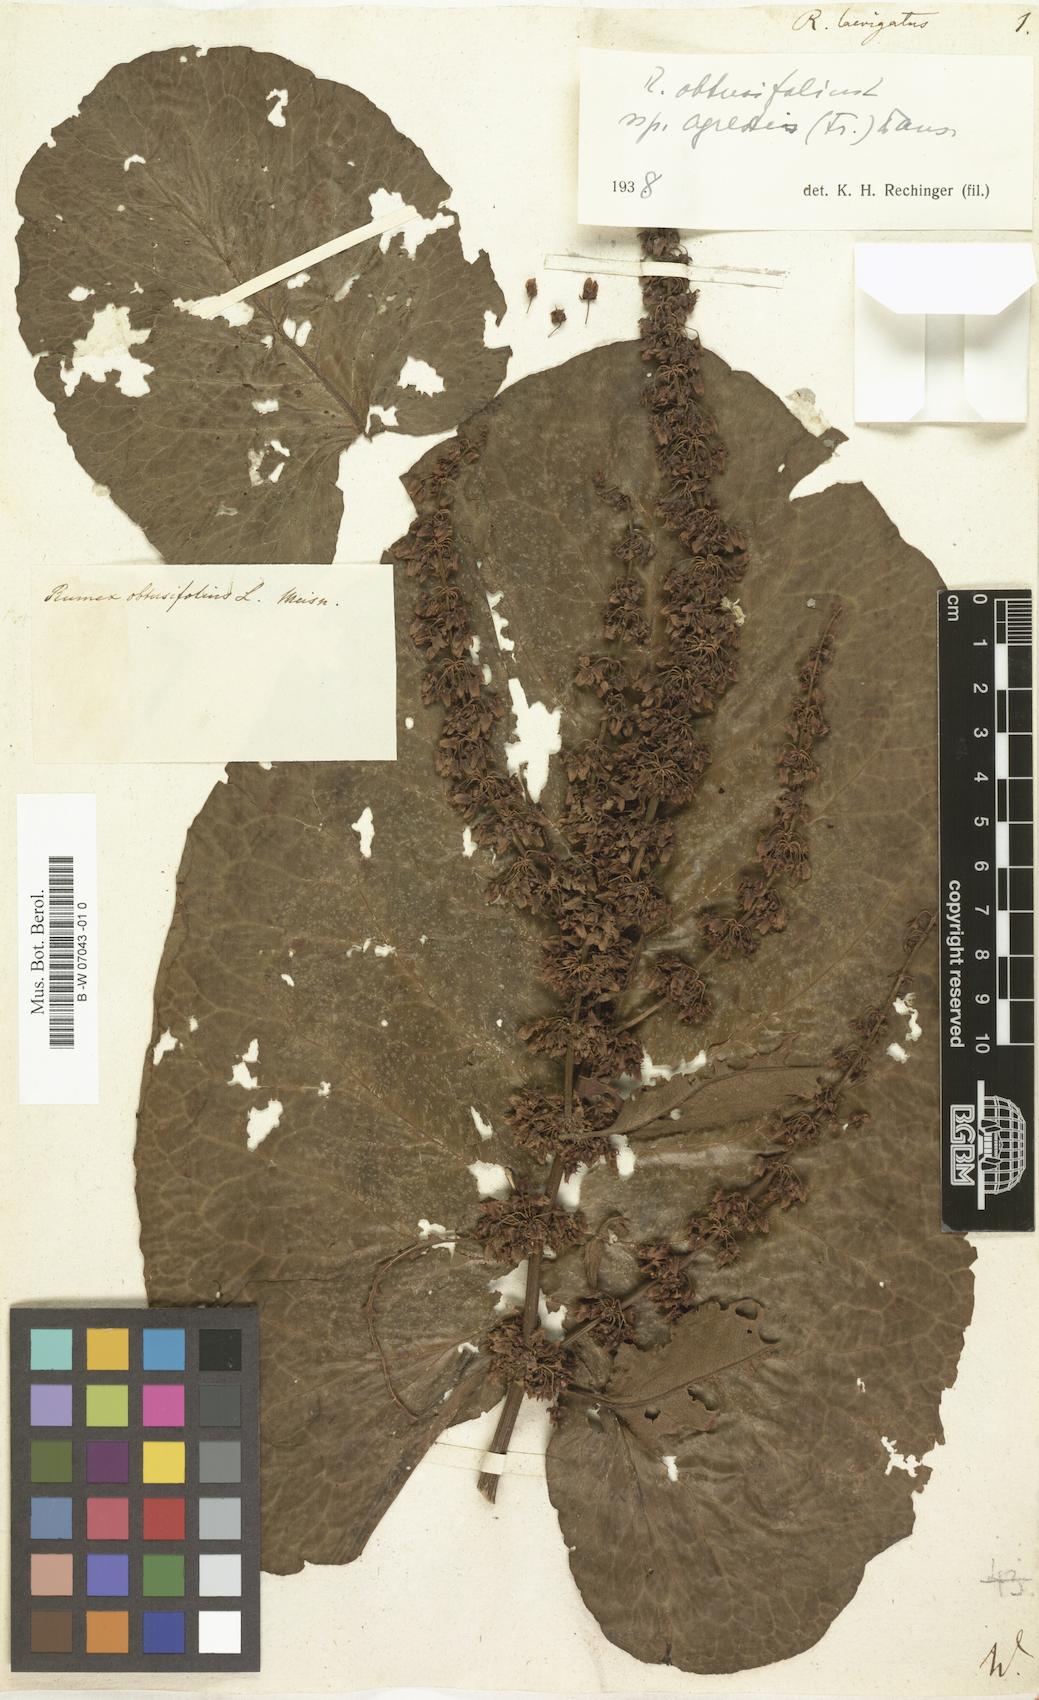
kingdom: Plantae
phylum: Tracheophyta
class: Magnoliopsida
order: Caryophyllales
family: Polygonaceae
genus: Rumex
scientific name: Rumex obtusifolius
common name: Bitter dock
